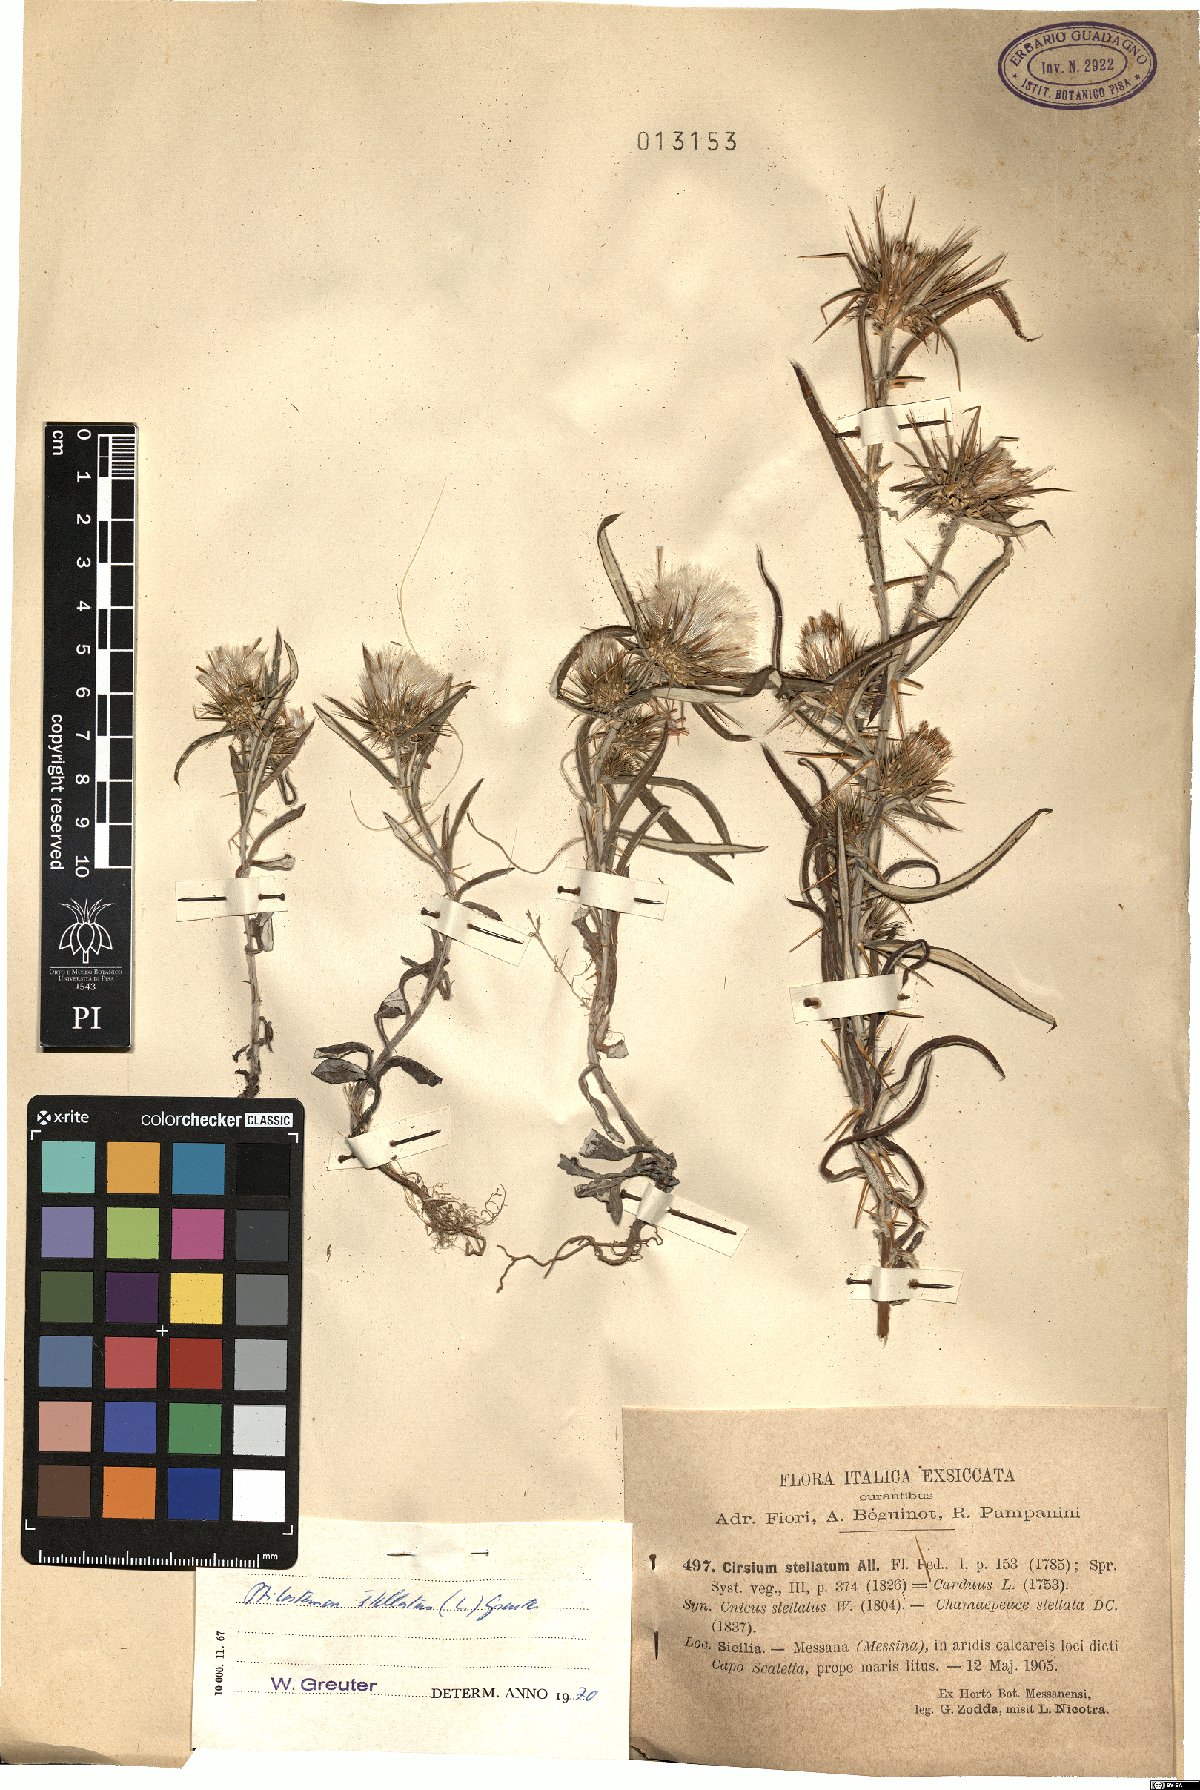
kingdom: Plantae
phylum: Tracheophyta
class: Magnoliopsida
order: Asterales
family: Asteraceae
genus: Ptilostemon
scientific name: Ptilostemon stellatus
